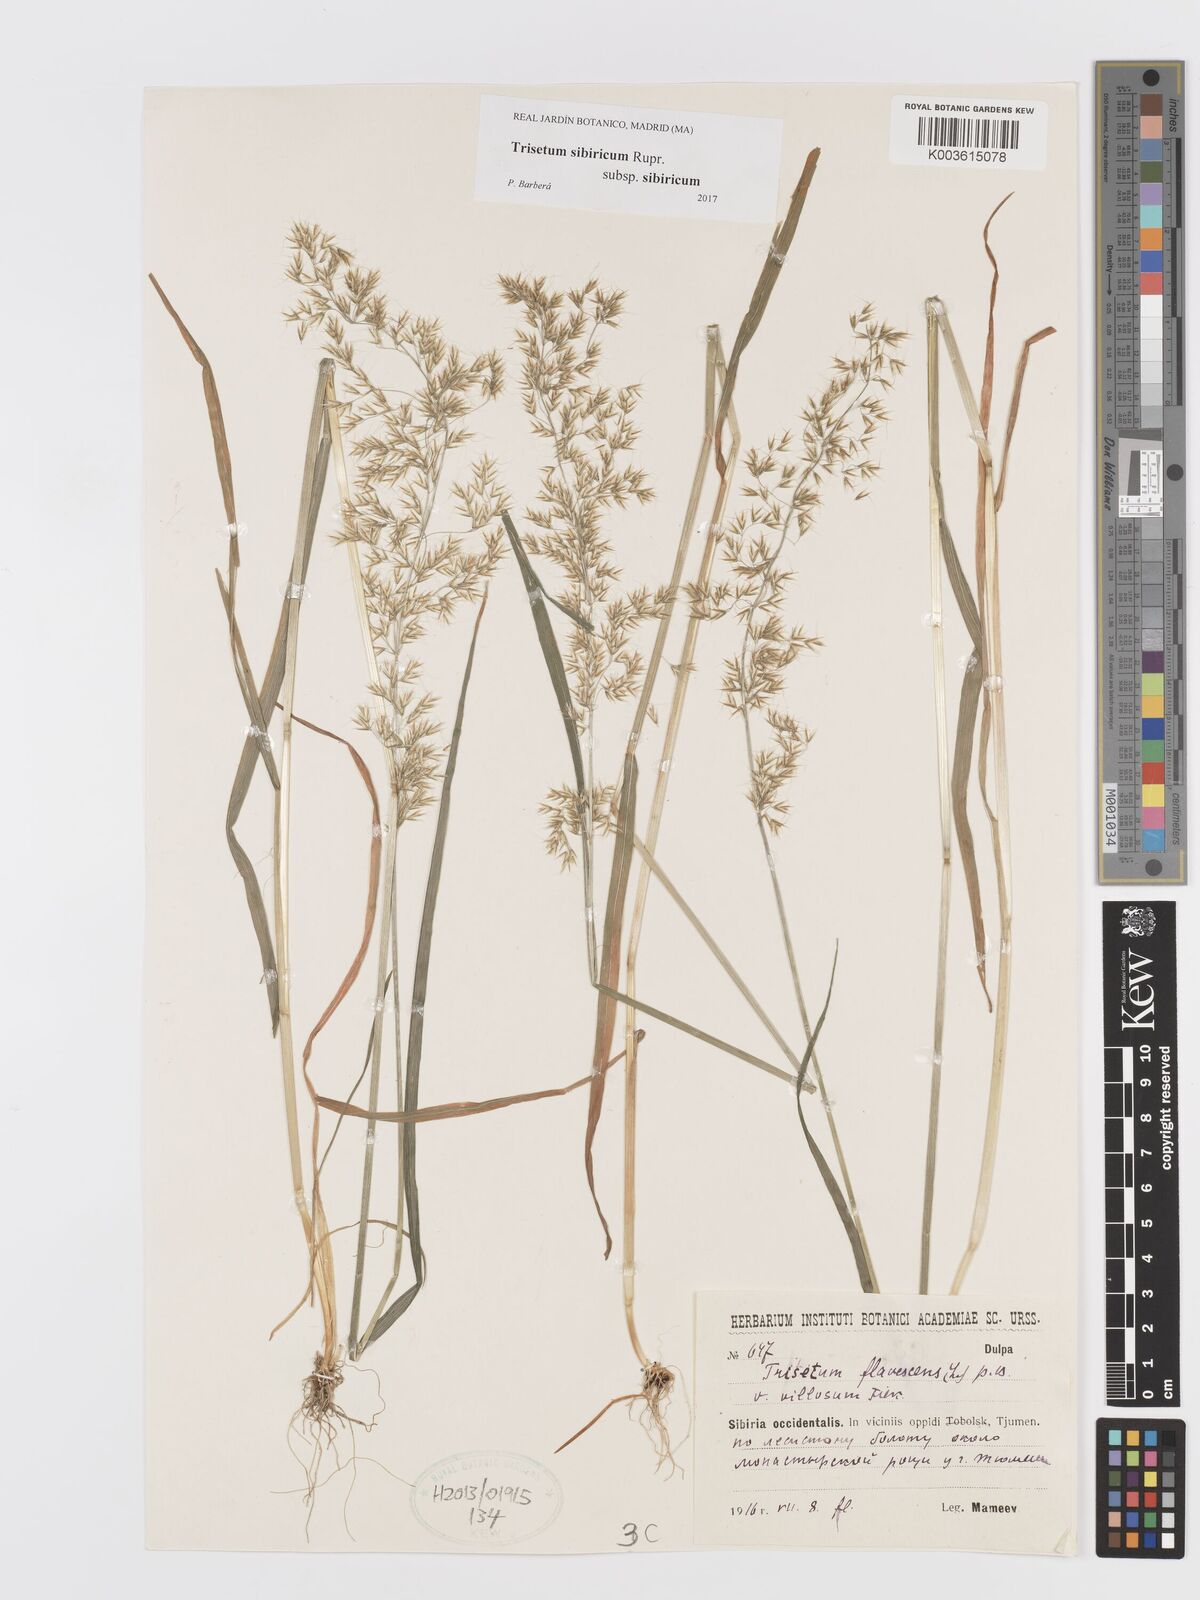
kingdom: Plantae
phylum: Tracheophyta
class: Liliopsida
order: Poales
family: Poaceae
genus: Sibirotrisetum
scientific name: Sibirotrisetum sibiricum
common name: Siberian false oat
